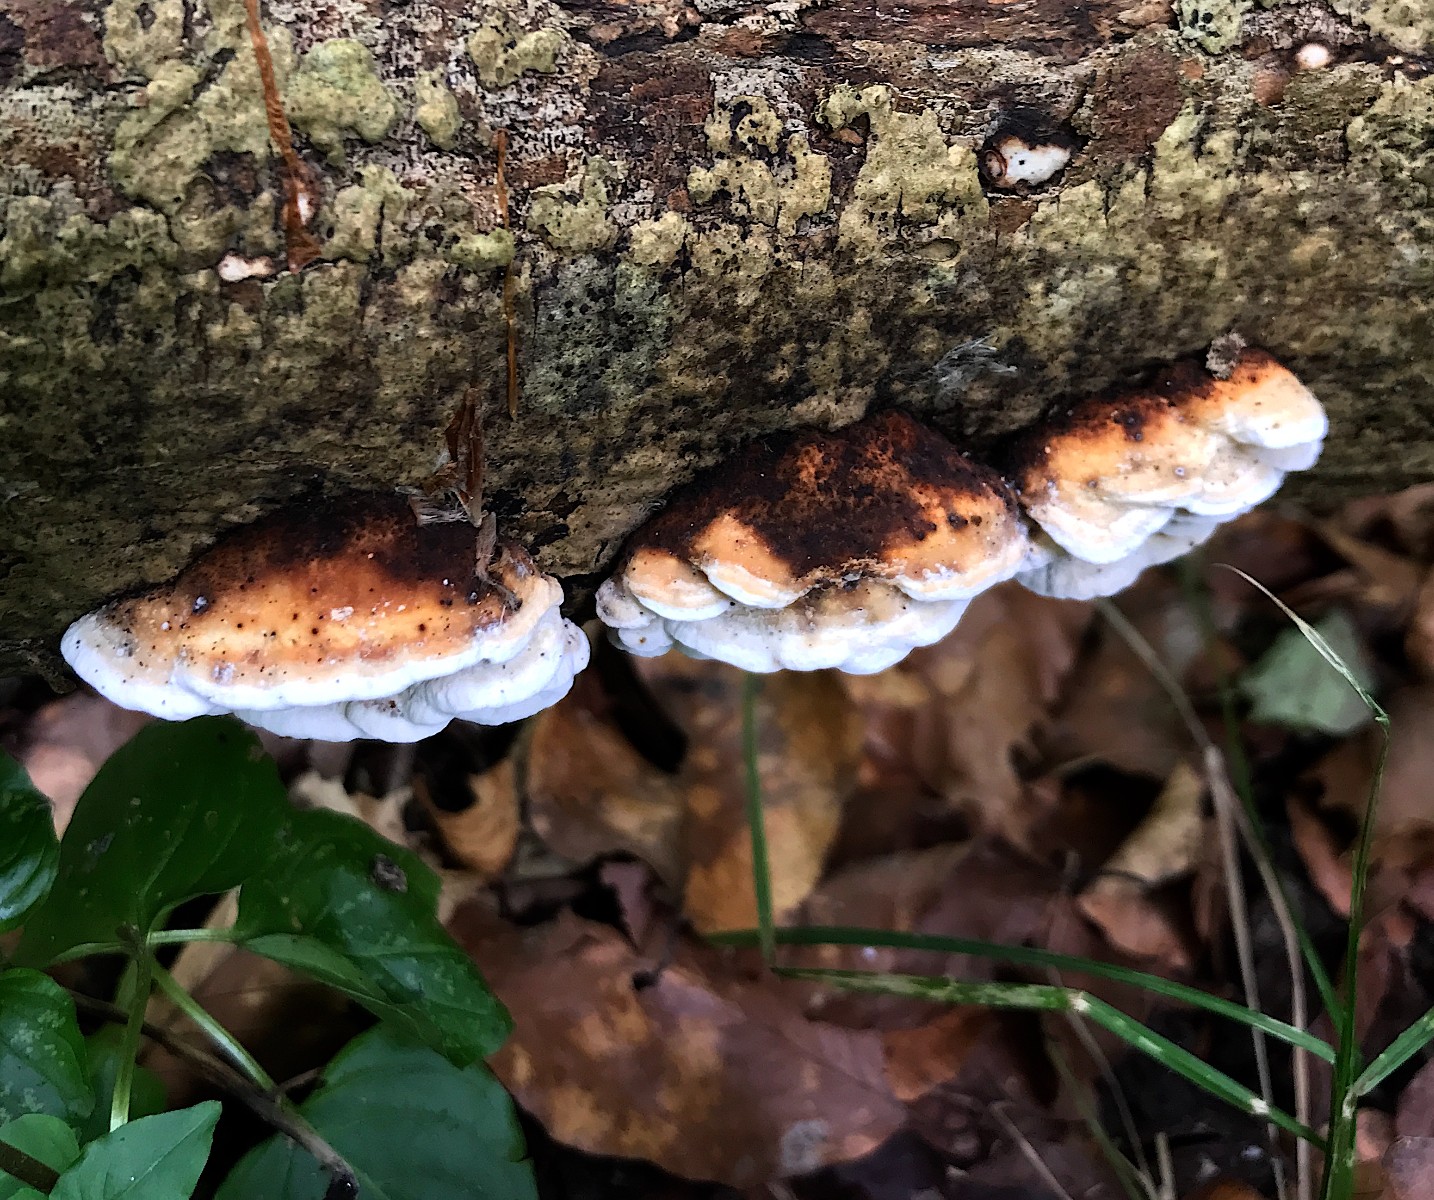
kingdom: Fungi
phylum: Basidiomycota
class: Agaricomycetes
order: Polyporales
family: Incrustoporiaceae
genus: Skeletocutis
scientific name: Skeletocutis nemoralis
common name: stor krystalporesvamp
